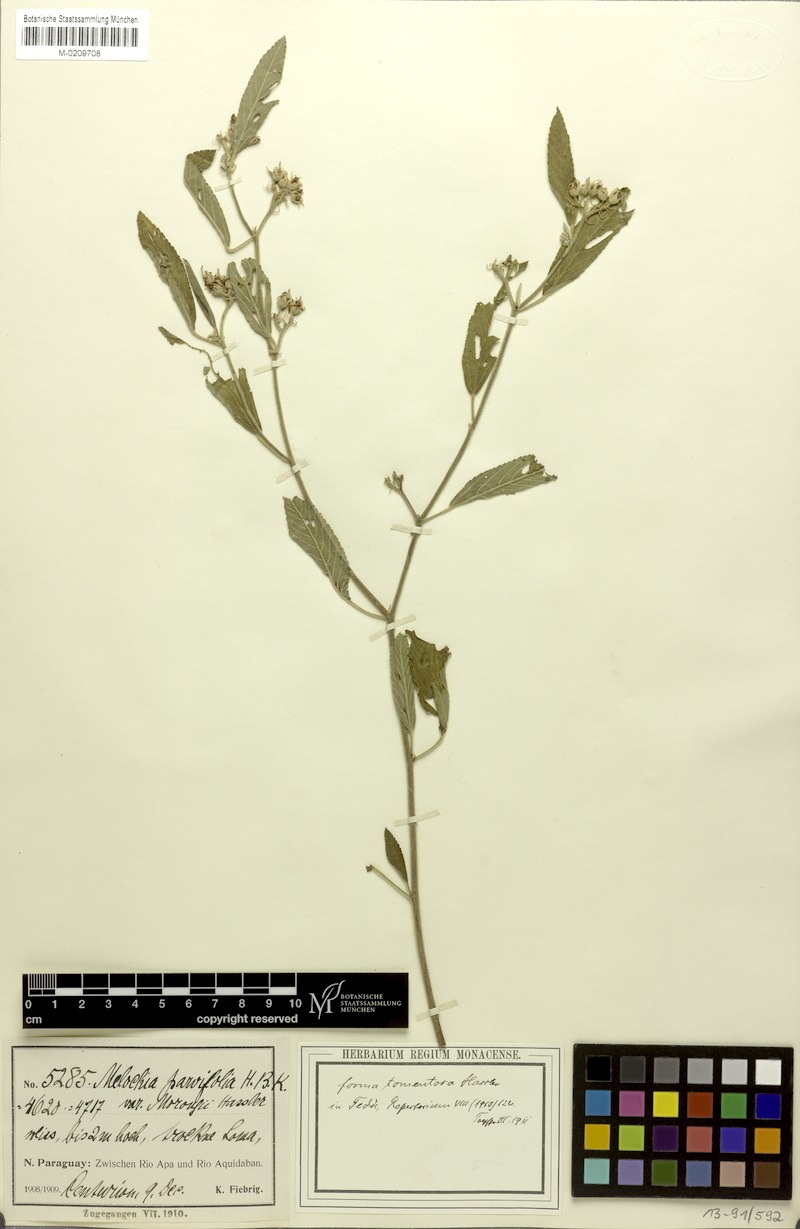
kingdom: Plantae
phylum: Tracheophyta
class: Magnoliopsida
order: Malvales
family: Malvaceae
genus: Melochia
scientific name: Melochia parvifolia
